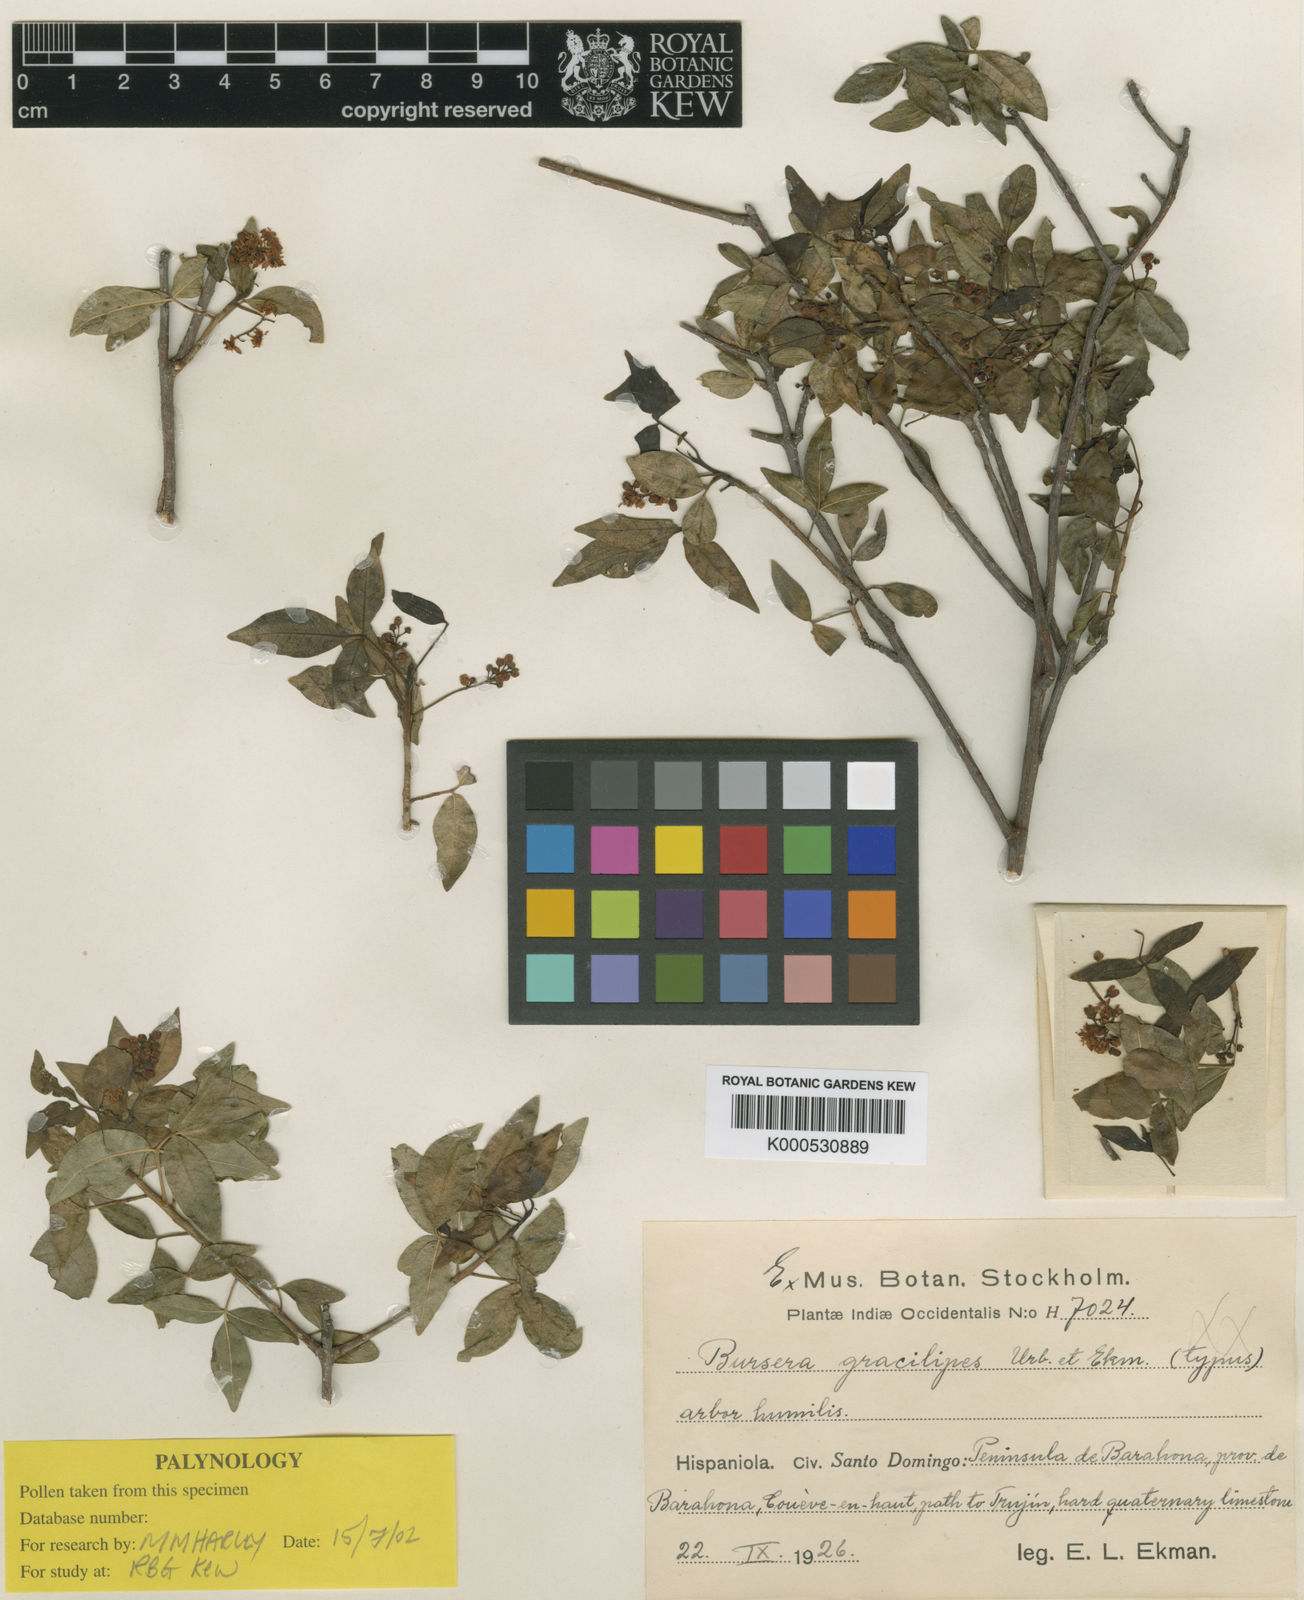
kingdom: Plantae
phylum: Tracheophyta
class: Magnoliopsida
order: Sapindales
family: Burseraceae
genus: Bursera
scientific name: Bursera gracilipes
